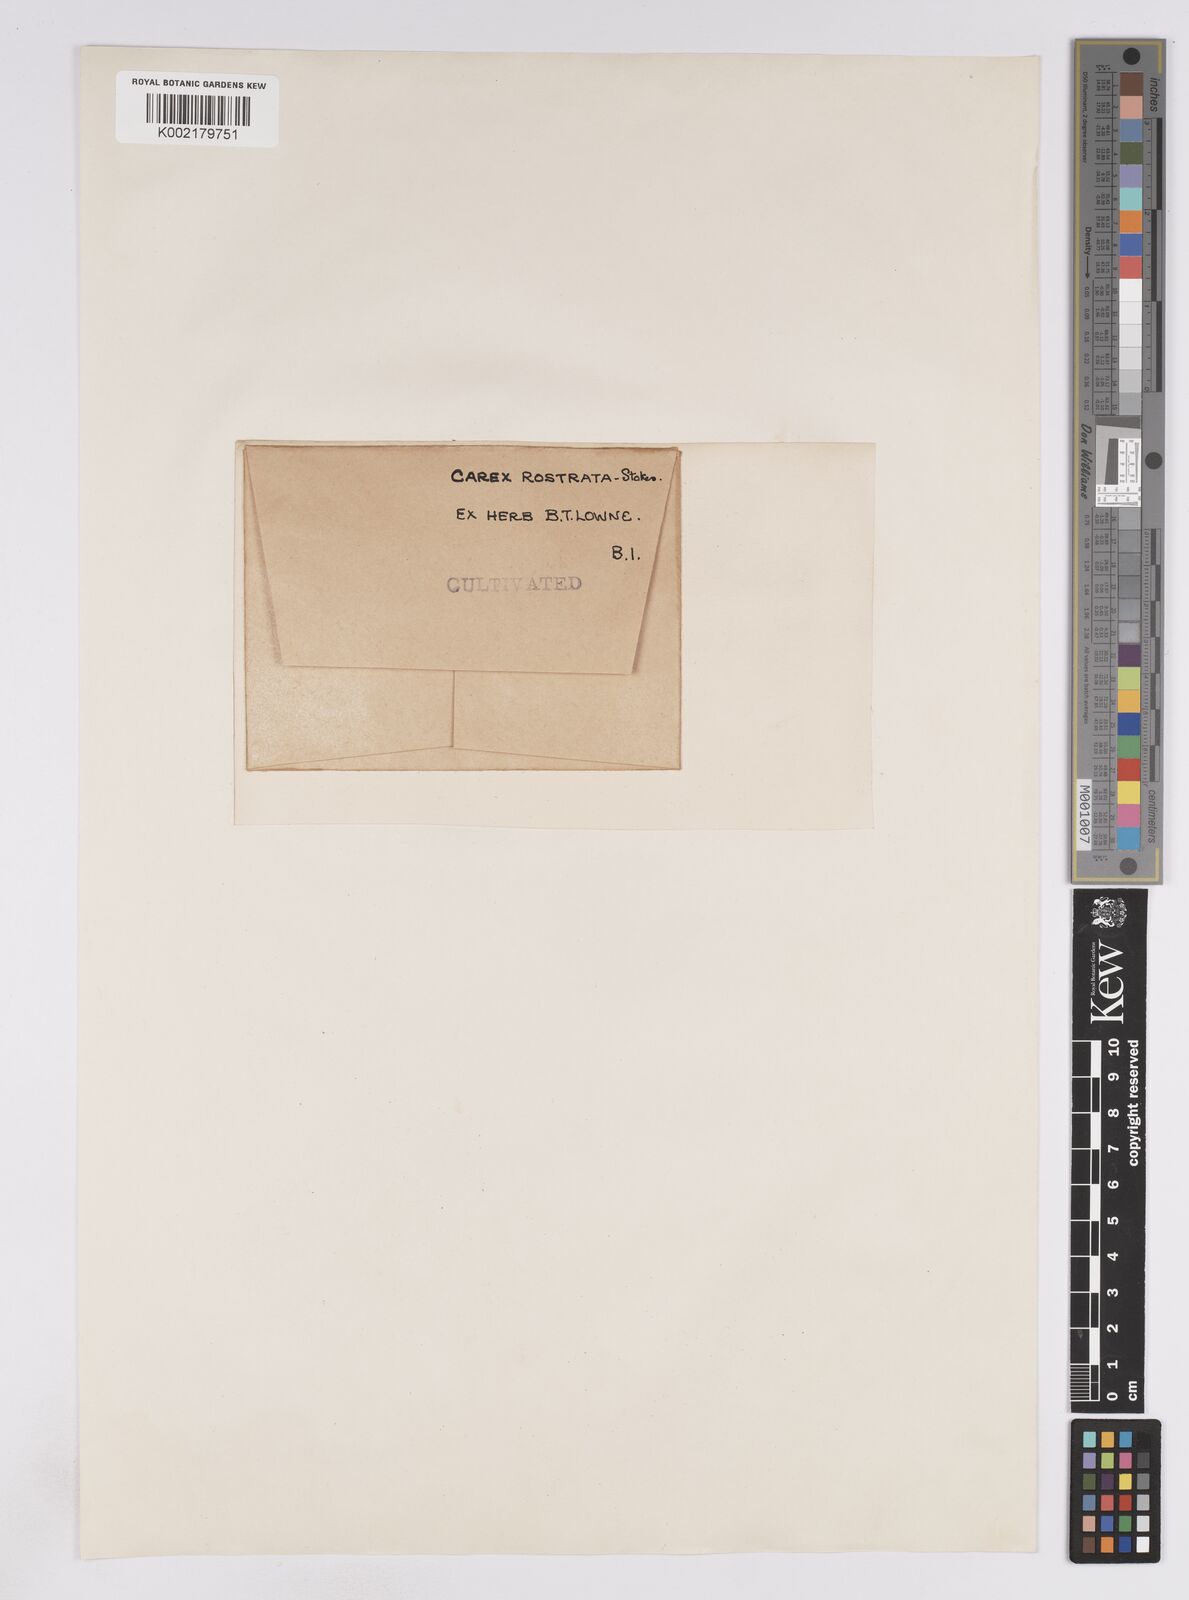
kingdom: Plantae
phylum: Tracheophyta
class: Liliopsida
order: Poales
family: Cyperaceae
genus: Carex
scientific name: Carex rostrata
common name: Bottle sedge
